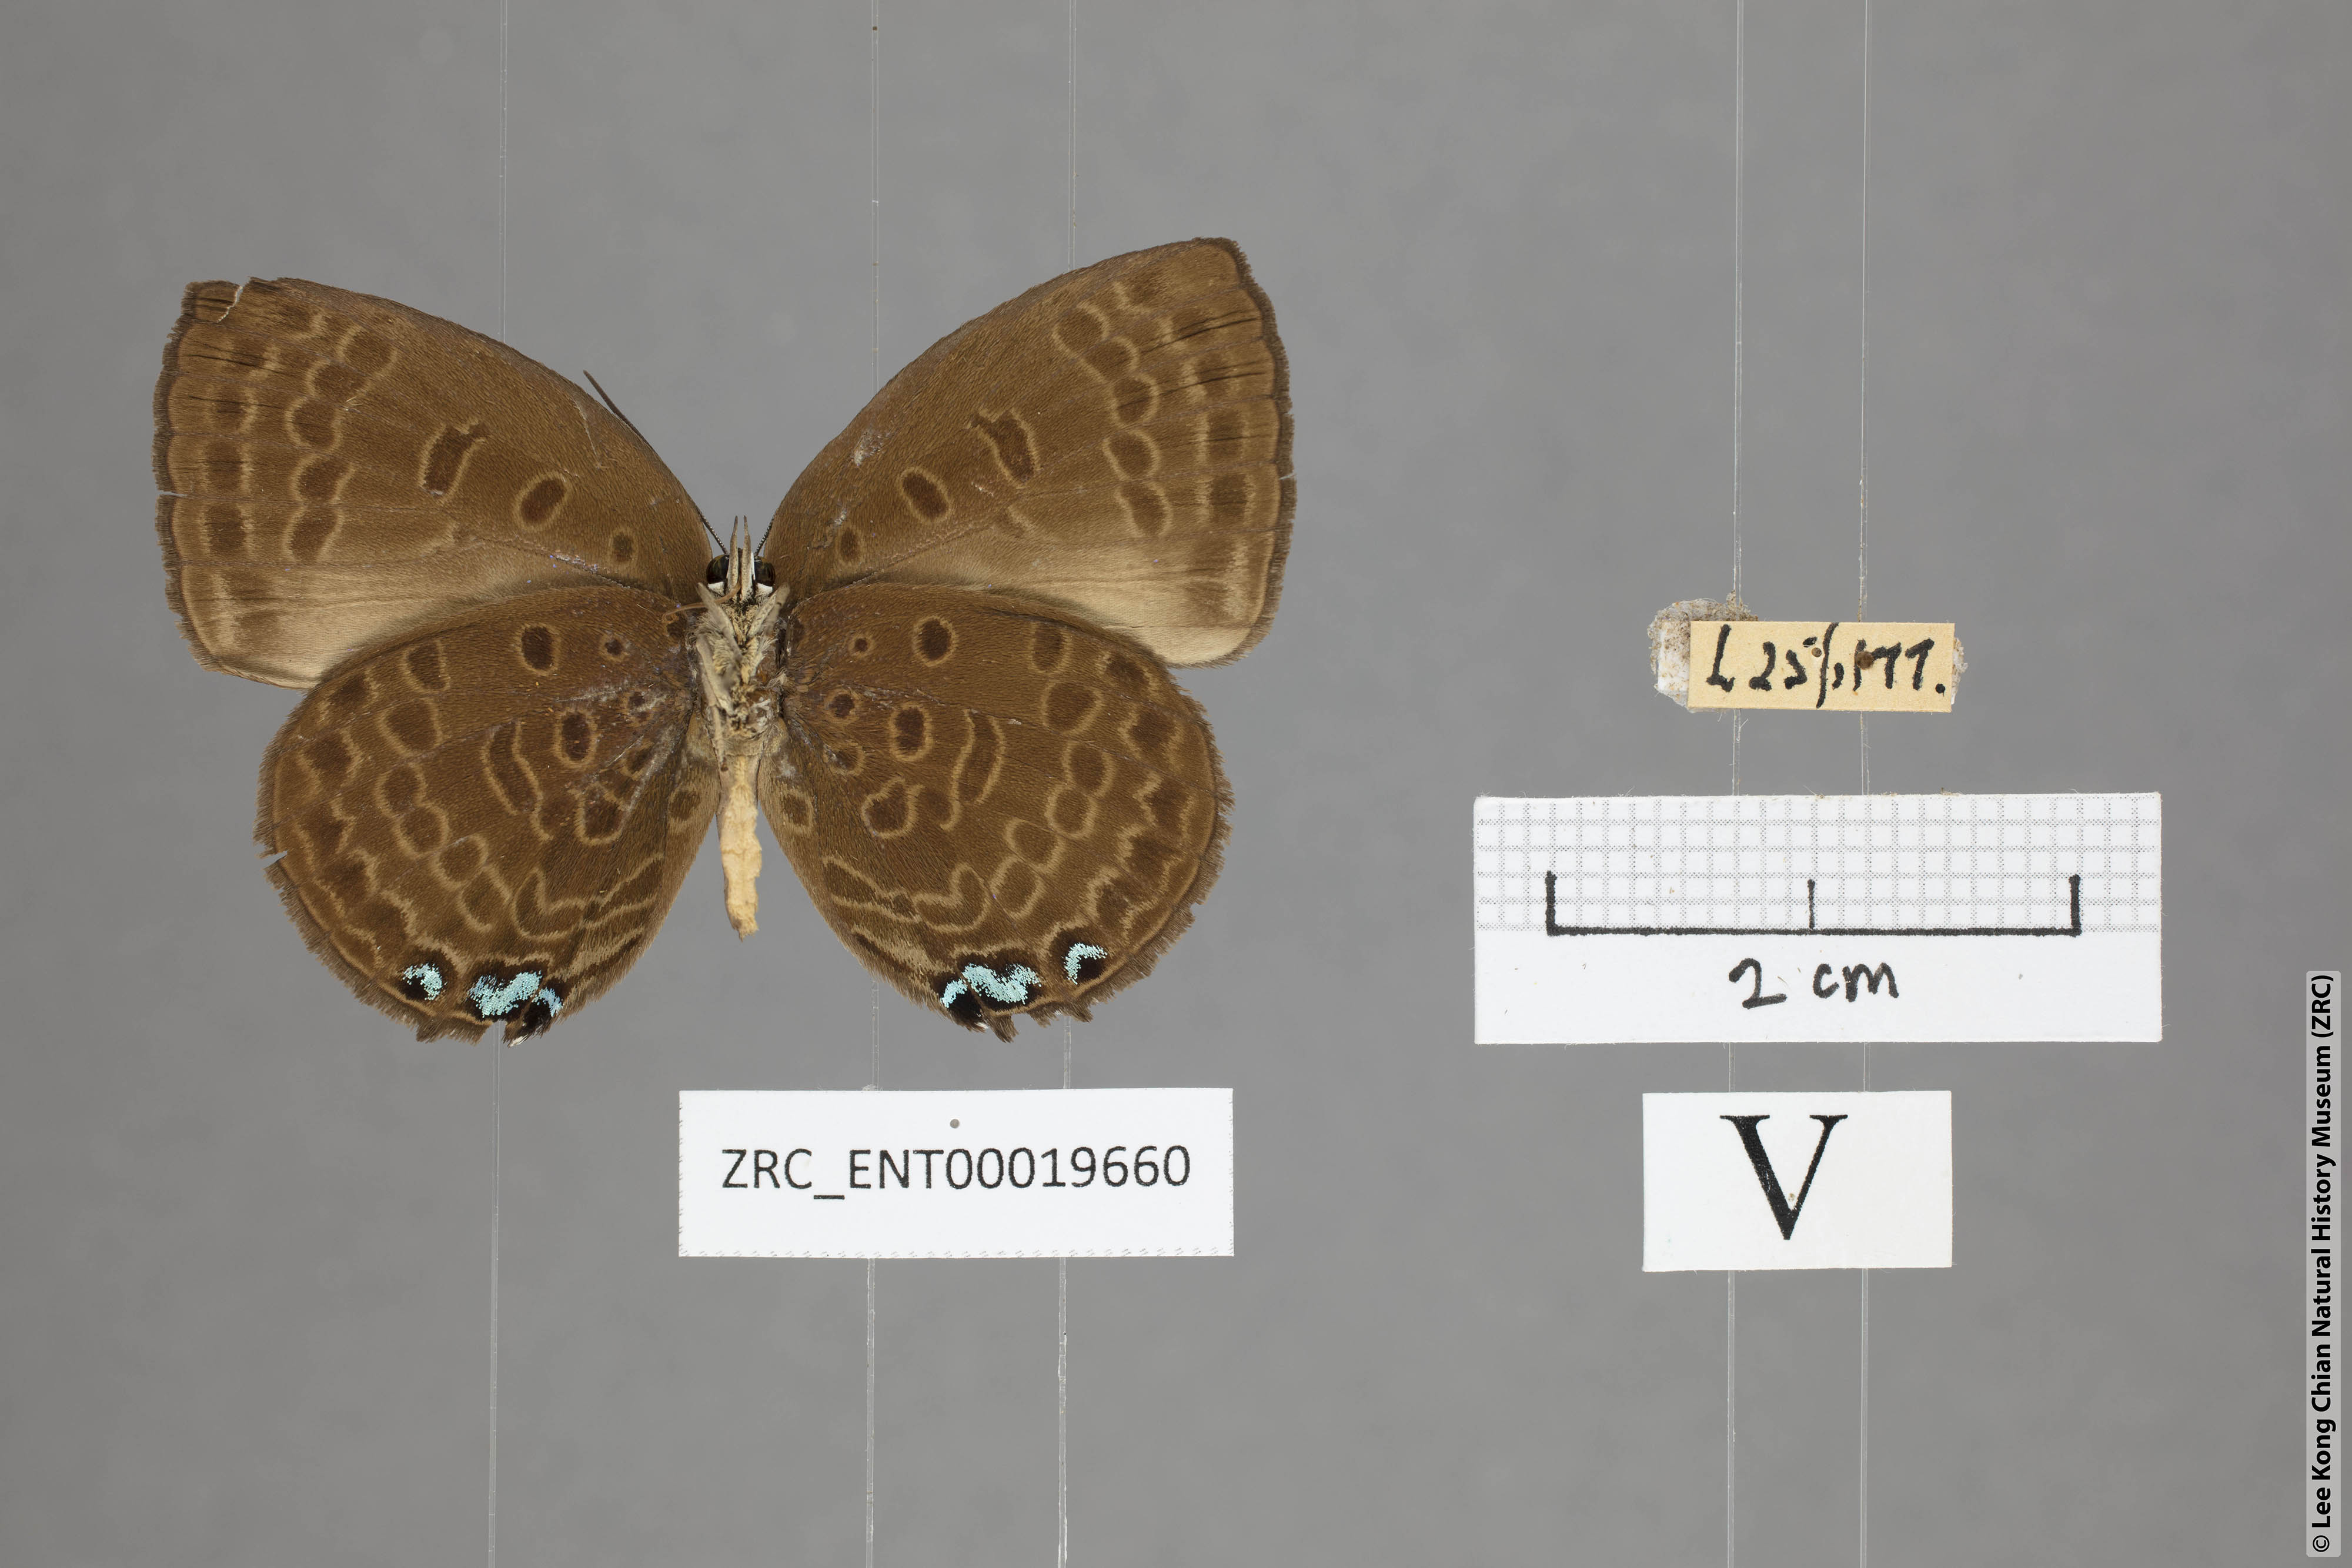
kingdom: Animalia
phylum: Arthropoda
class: Insecta
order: Lepidoptera
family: Lycaenidae
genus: Arhopala
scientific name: Arhopala moolaina
